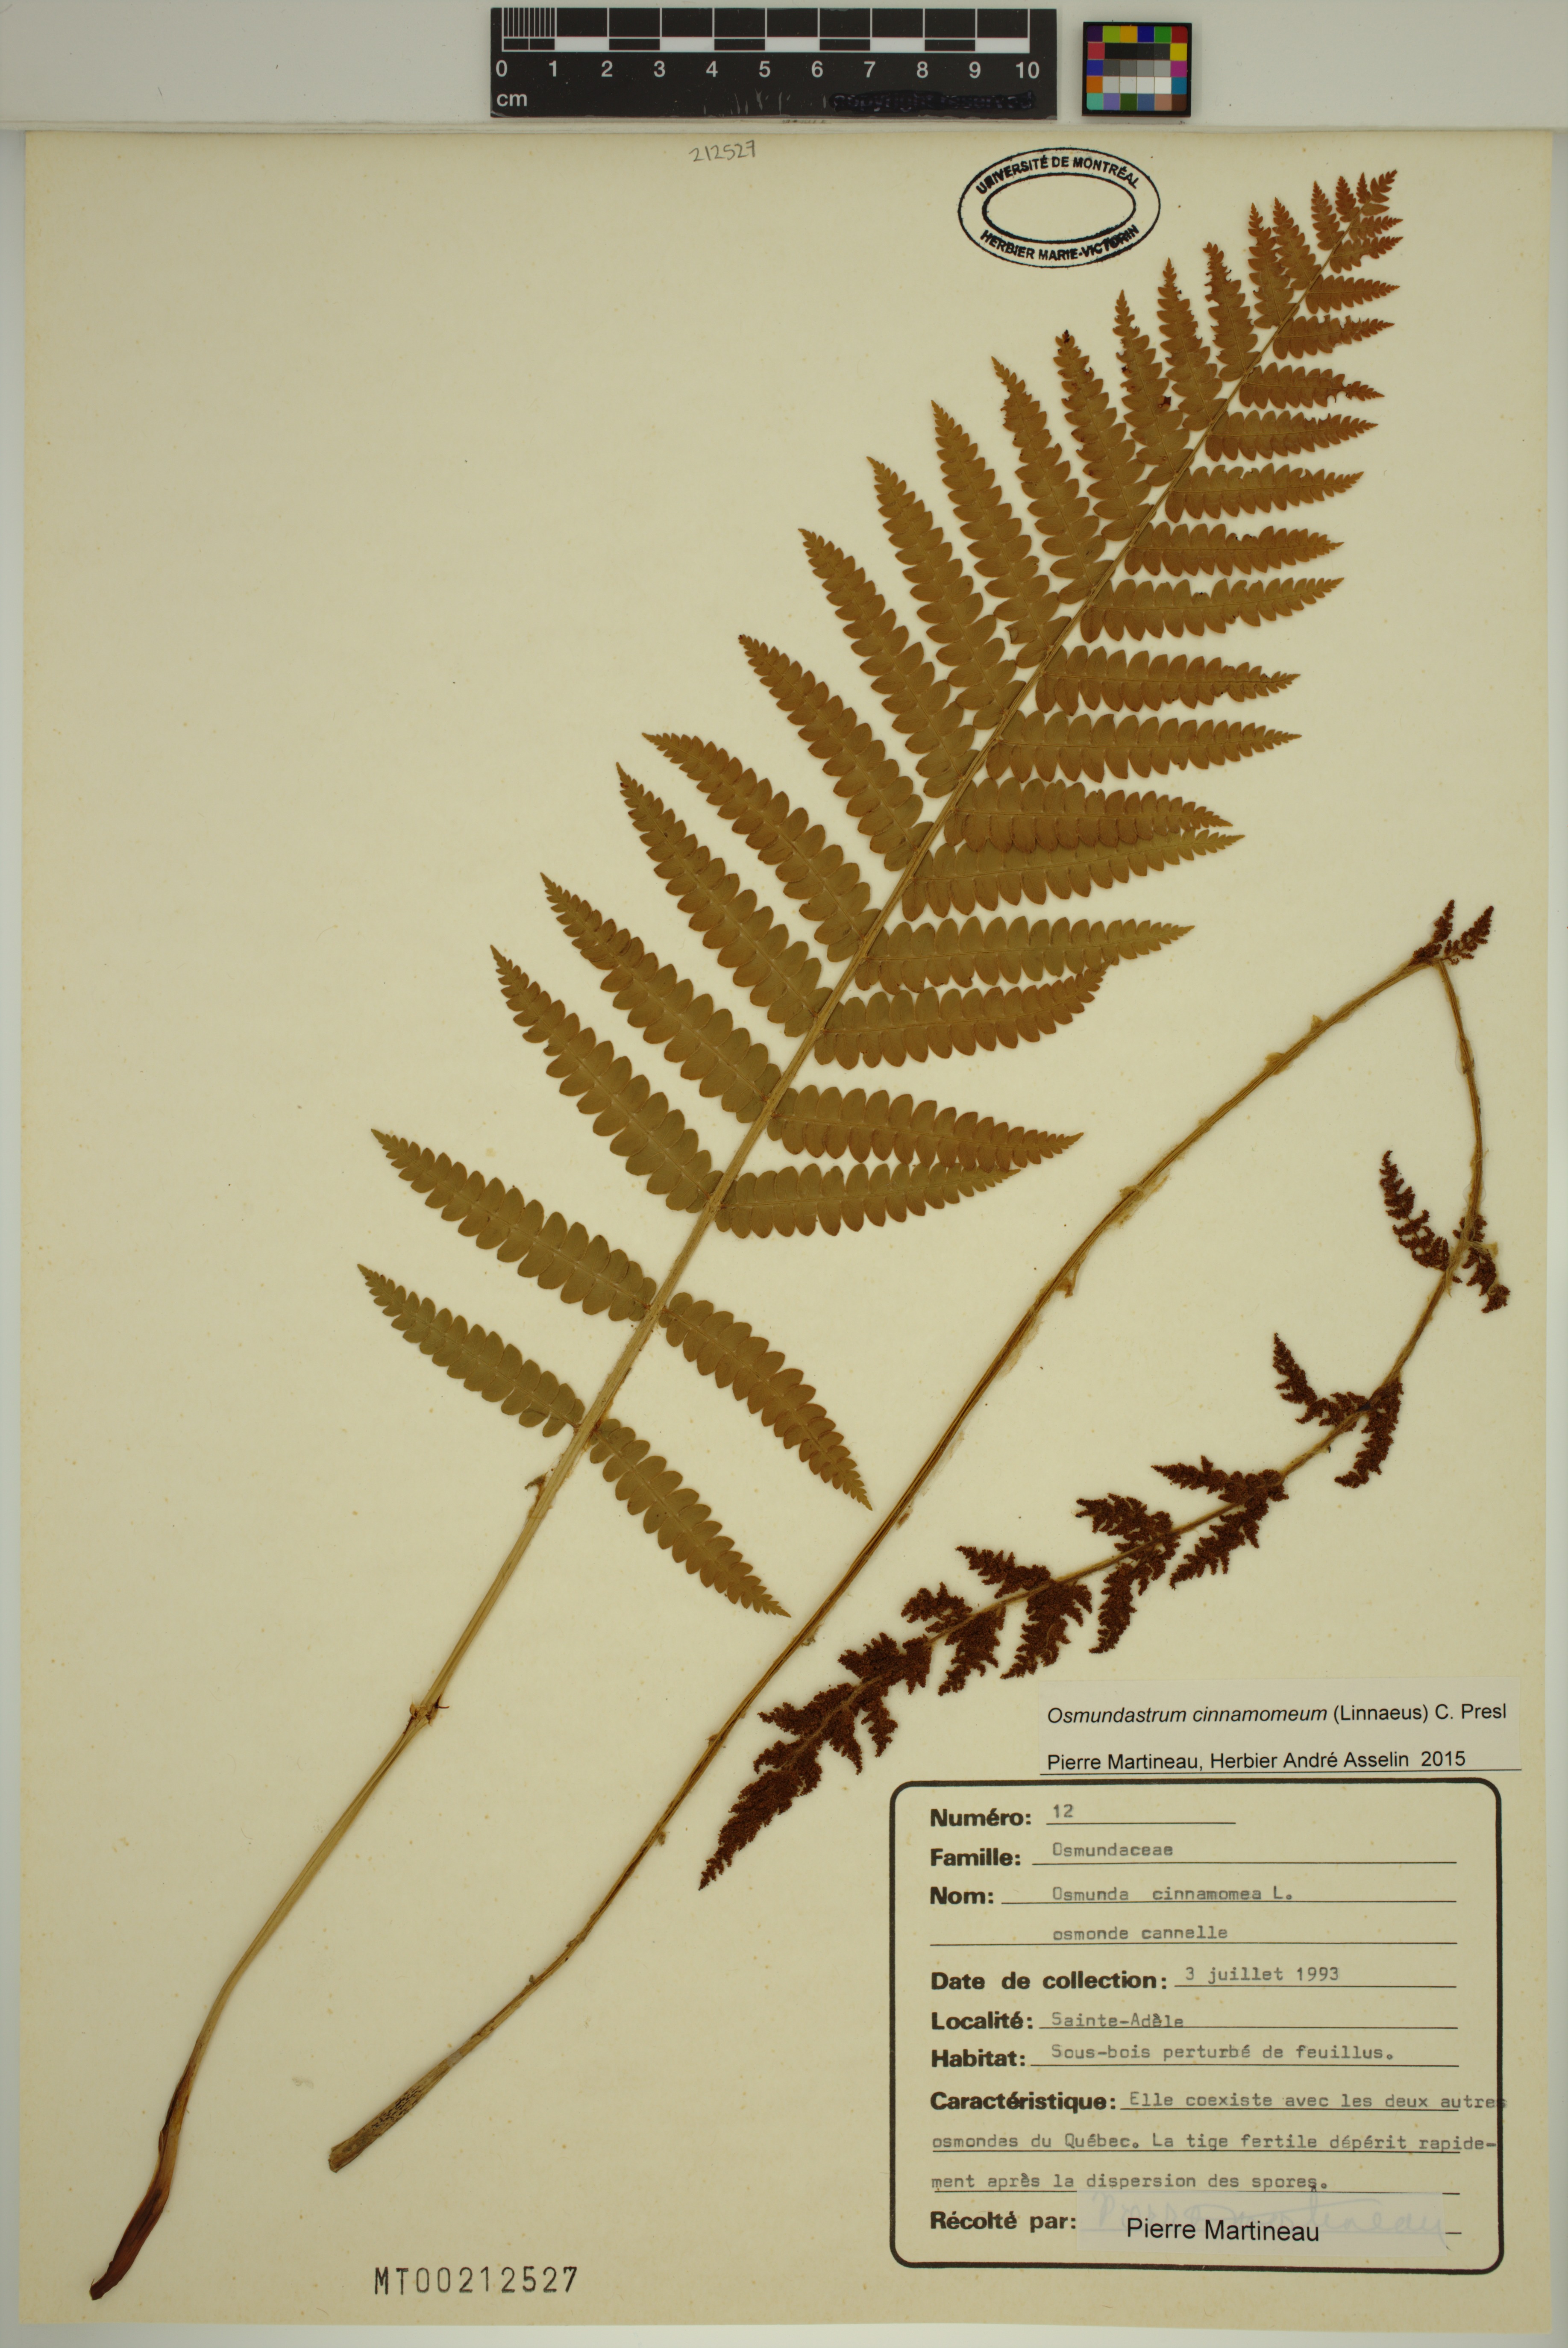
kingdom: Plantae
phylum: Tracheophyta
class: Polypodiopsida
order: Osmundales
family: Osmundaceae
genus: Osmundastrum
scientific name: Osmundastrum cinnamomeum
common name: Cinnamon fern
